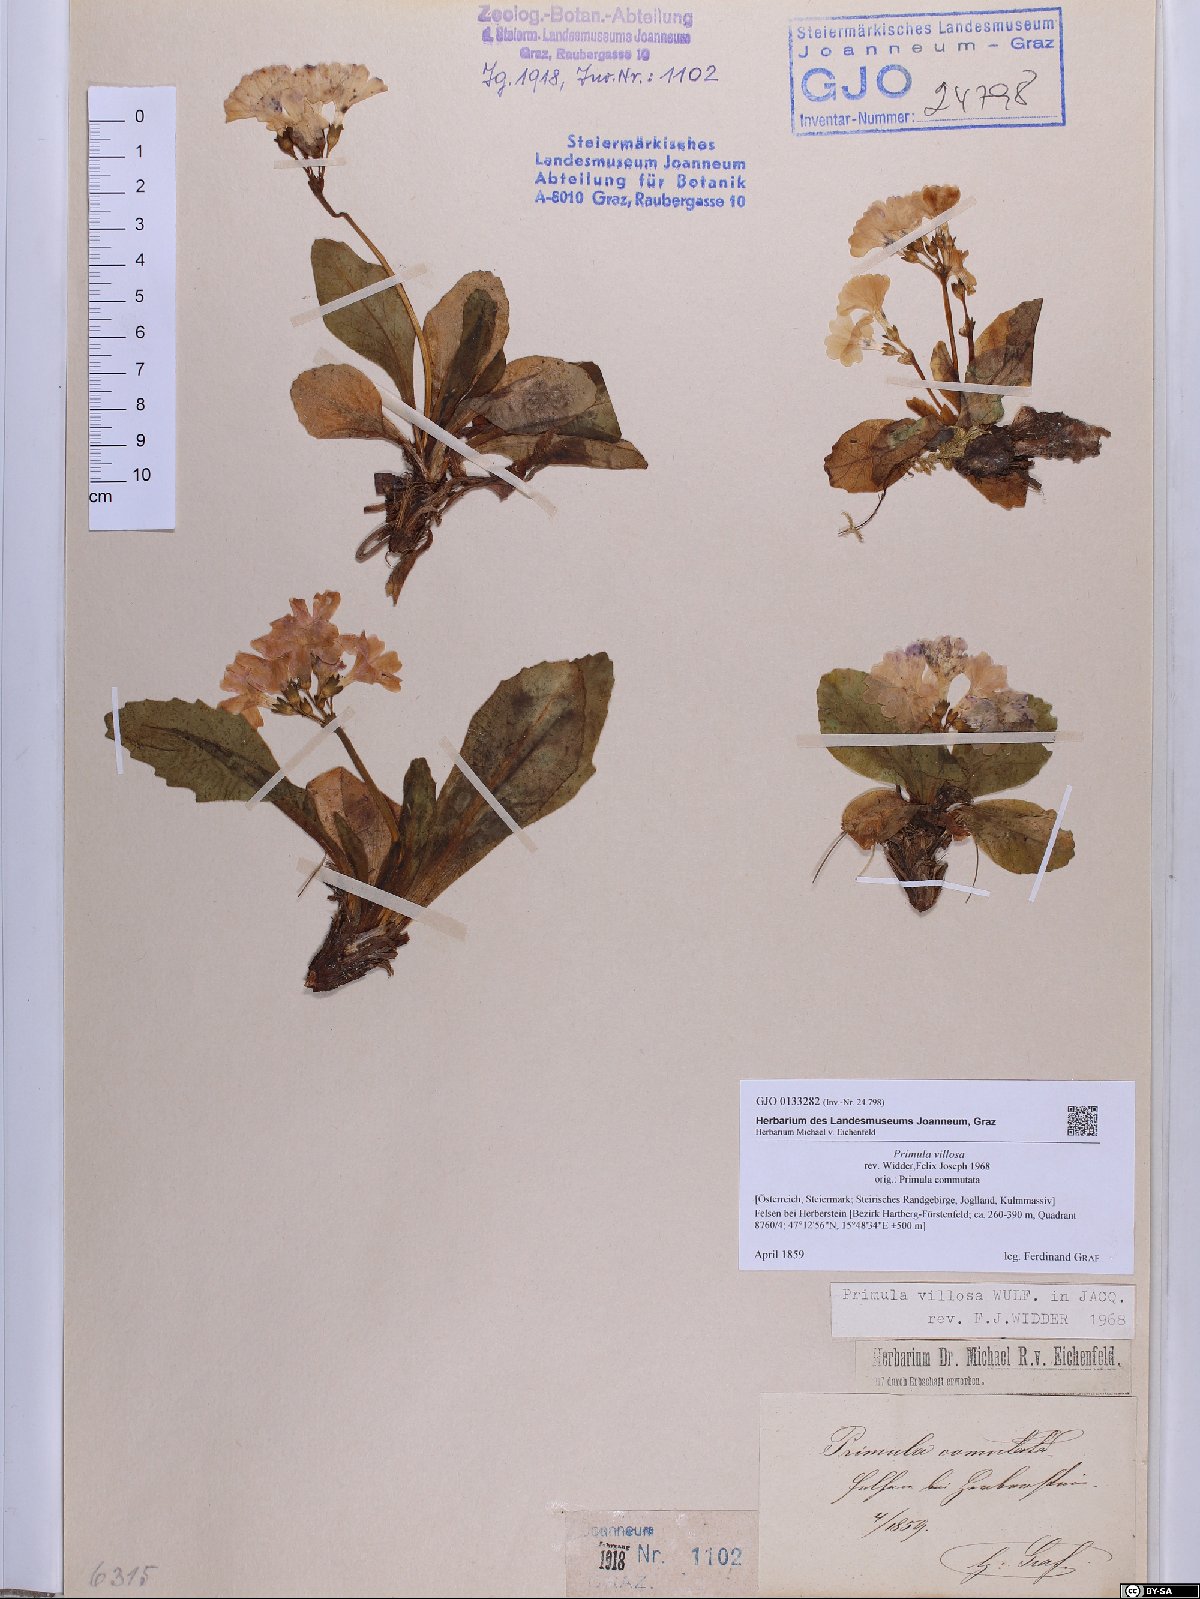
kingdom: Plantae
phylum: Tracheophyta
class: Magnoliopsida
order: Ericales
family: Primulaceae
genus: Primula
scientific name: Primula villosa
